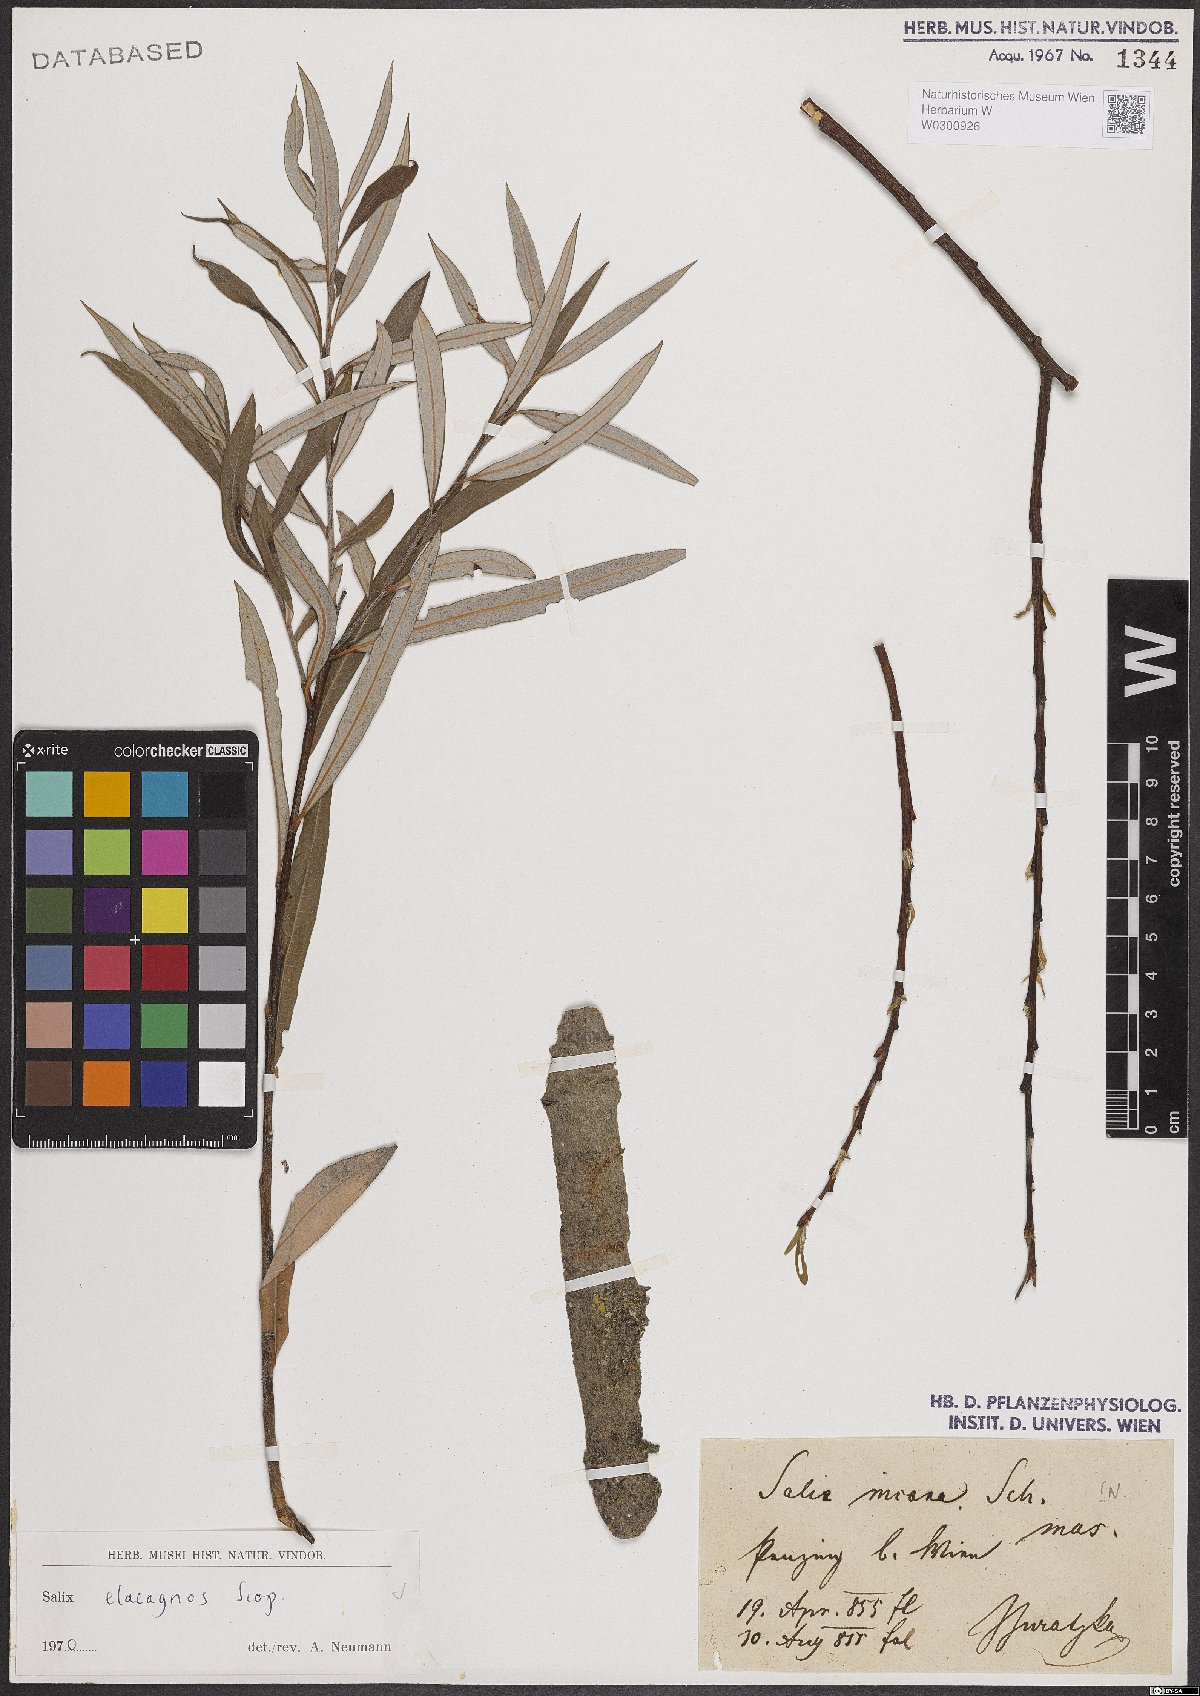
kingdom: Plantae
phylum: Tracheophyta
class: Magnoliopsida
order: Malpighiales
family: Salicaceae
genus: Salix
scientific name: Salix eleagnos
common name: Elaeagnus willow
